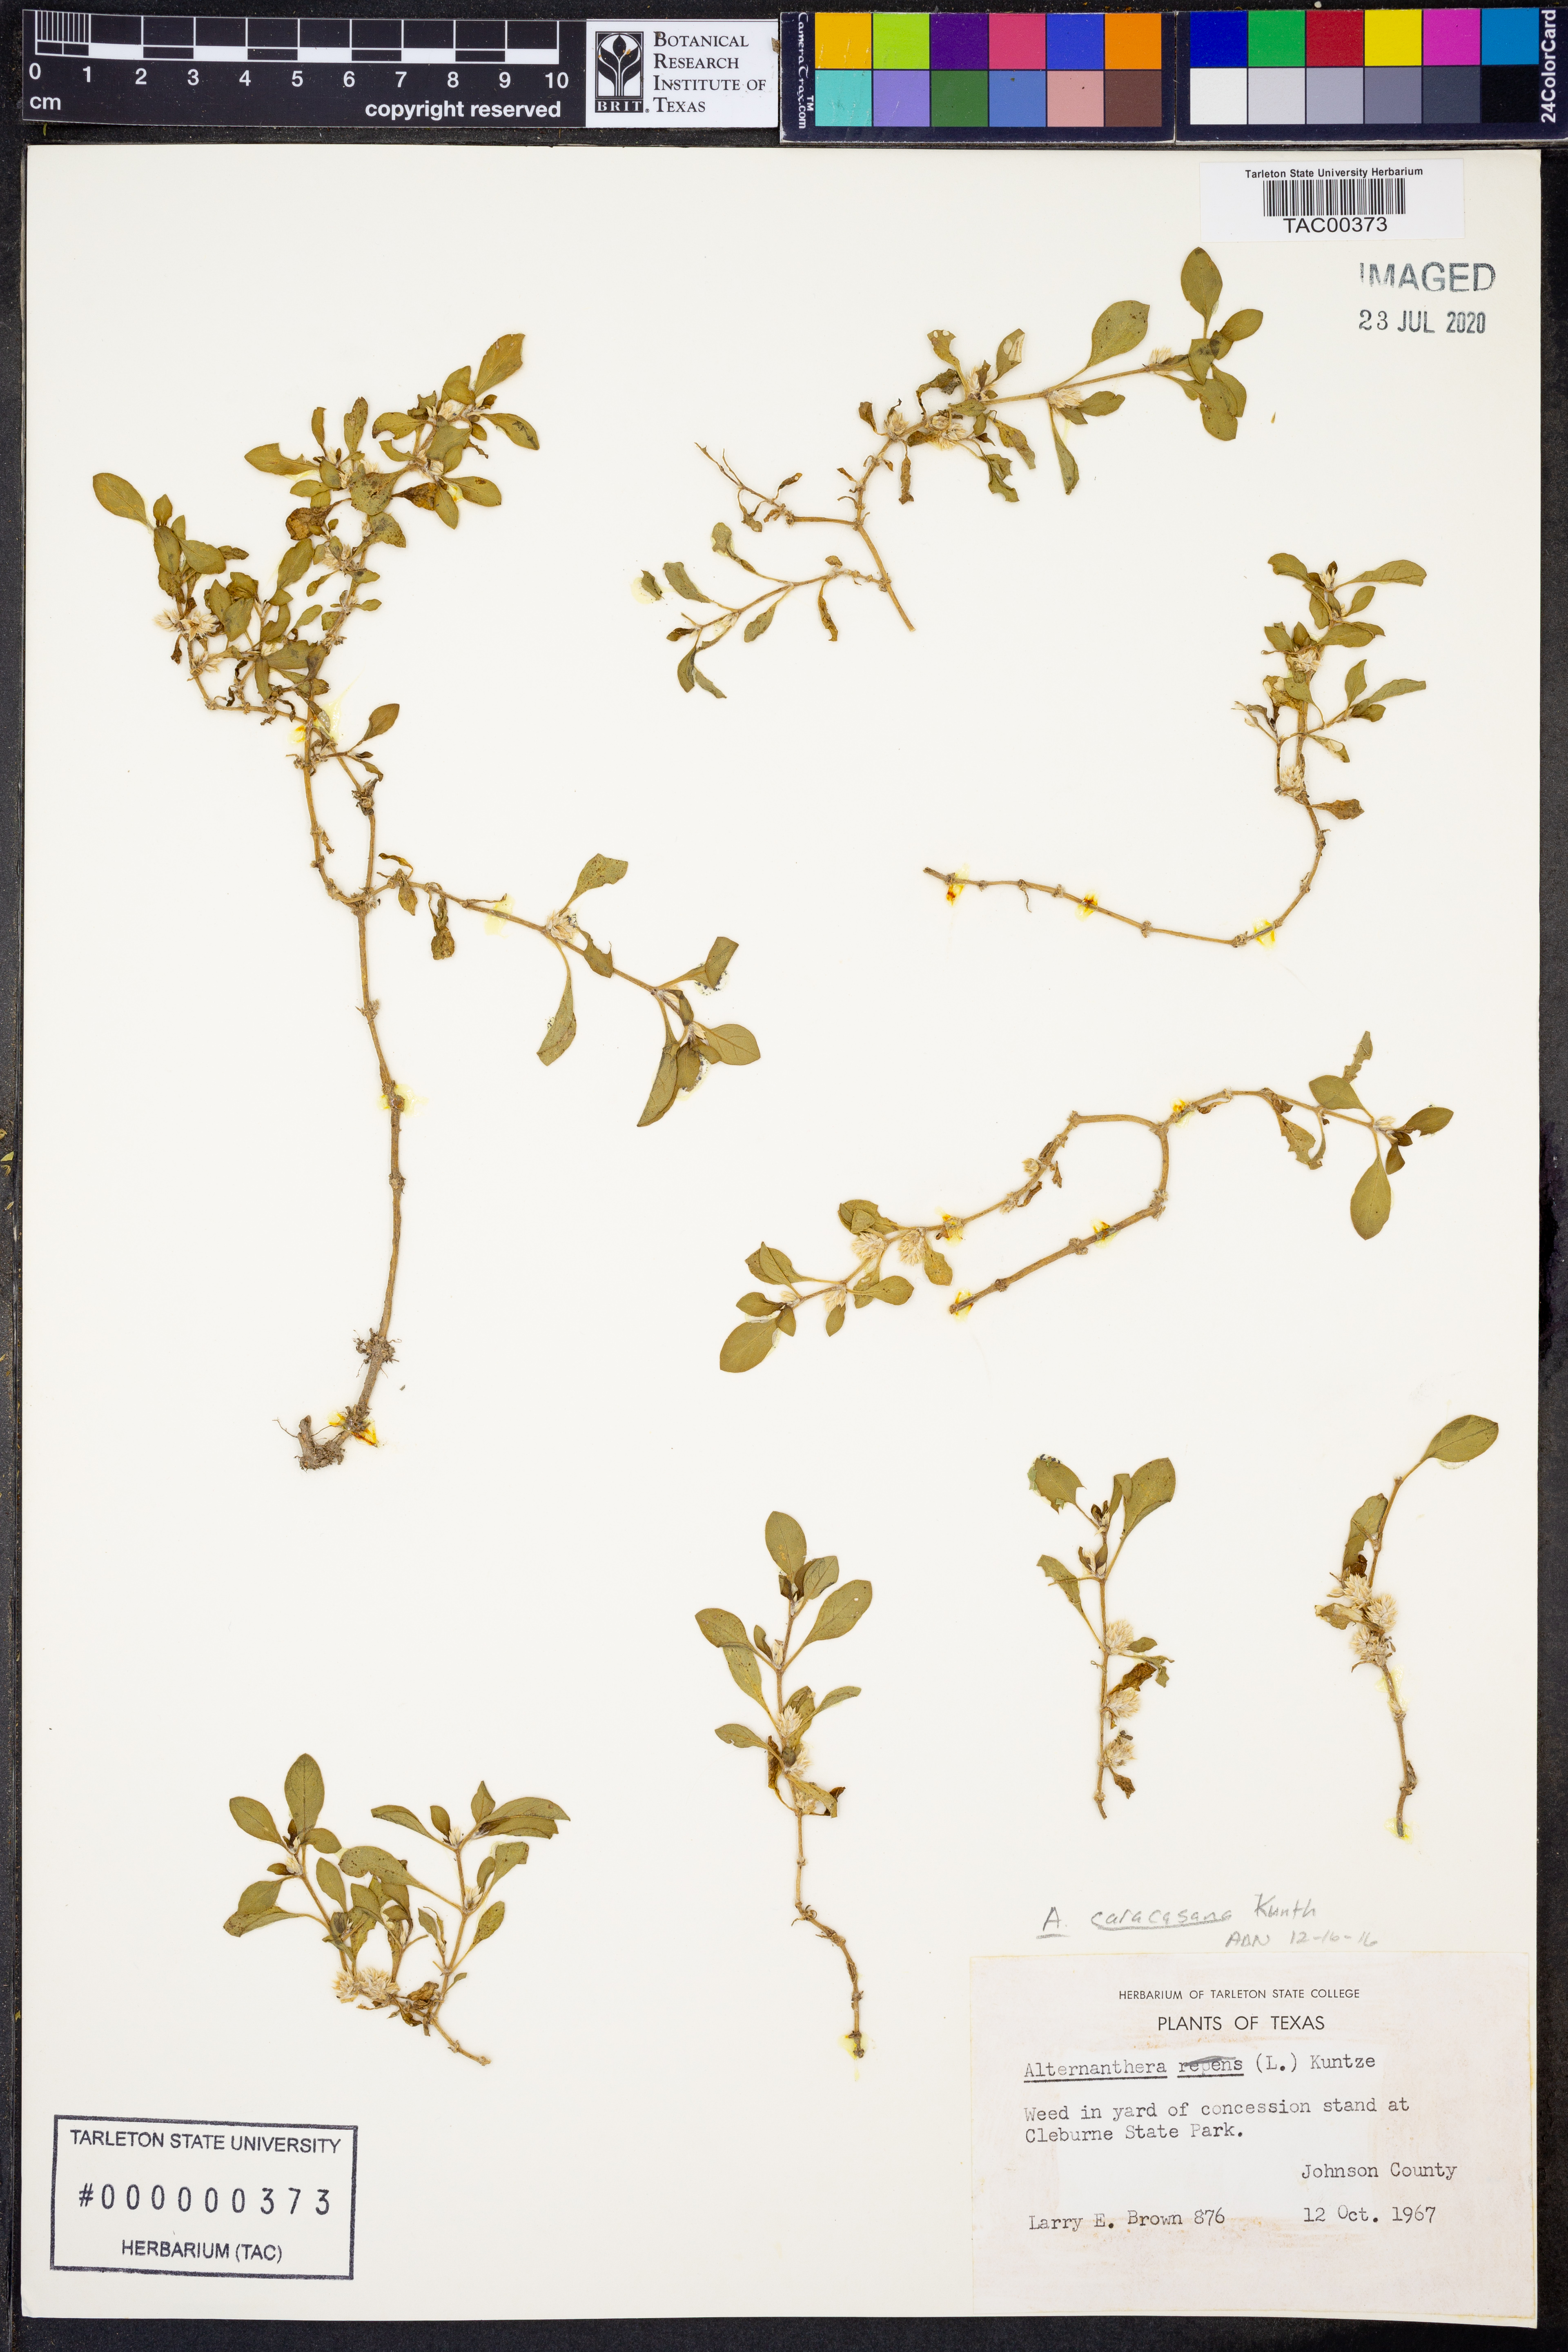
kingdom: Plantae
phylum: Tracheophyta
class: Magnoliopsida
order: Caryophyllales
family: Amaranthaceae
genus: Alternanthera
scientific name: Alternanthera caracasana
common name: Washerwoman
